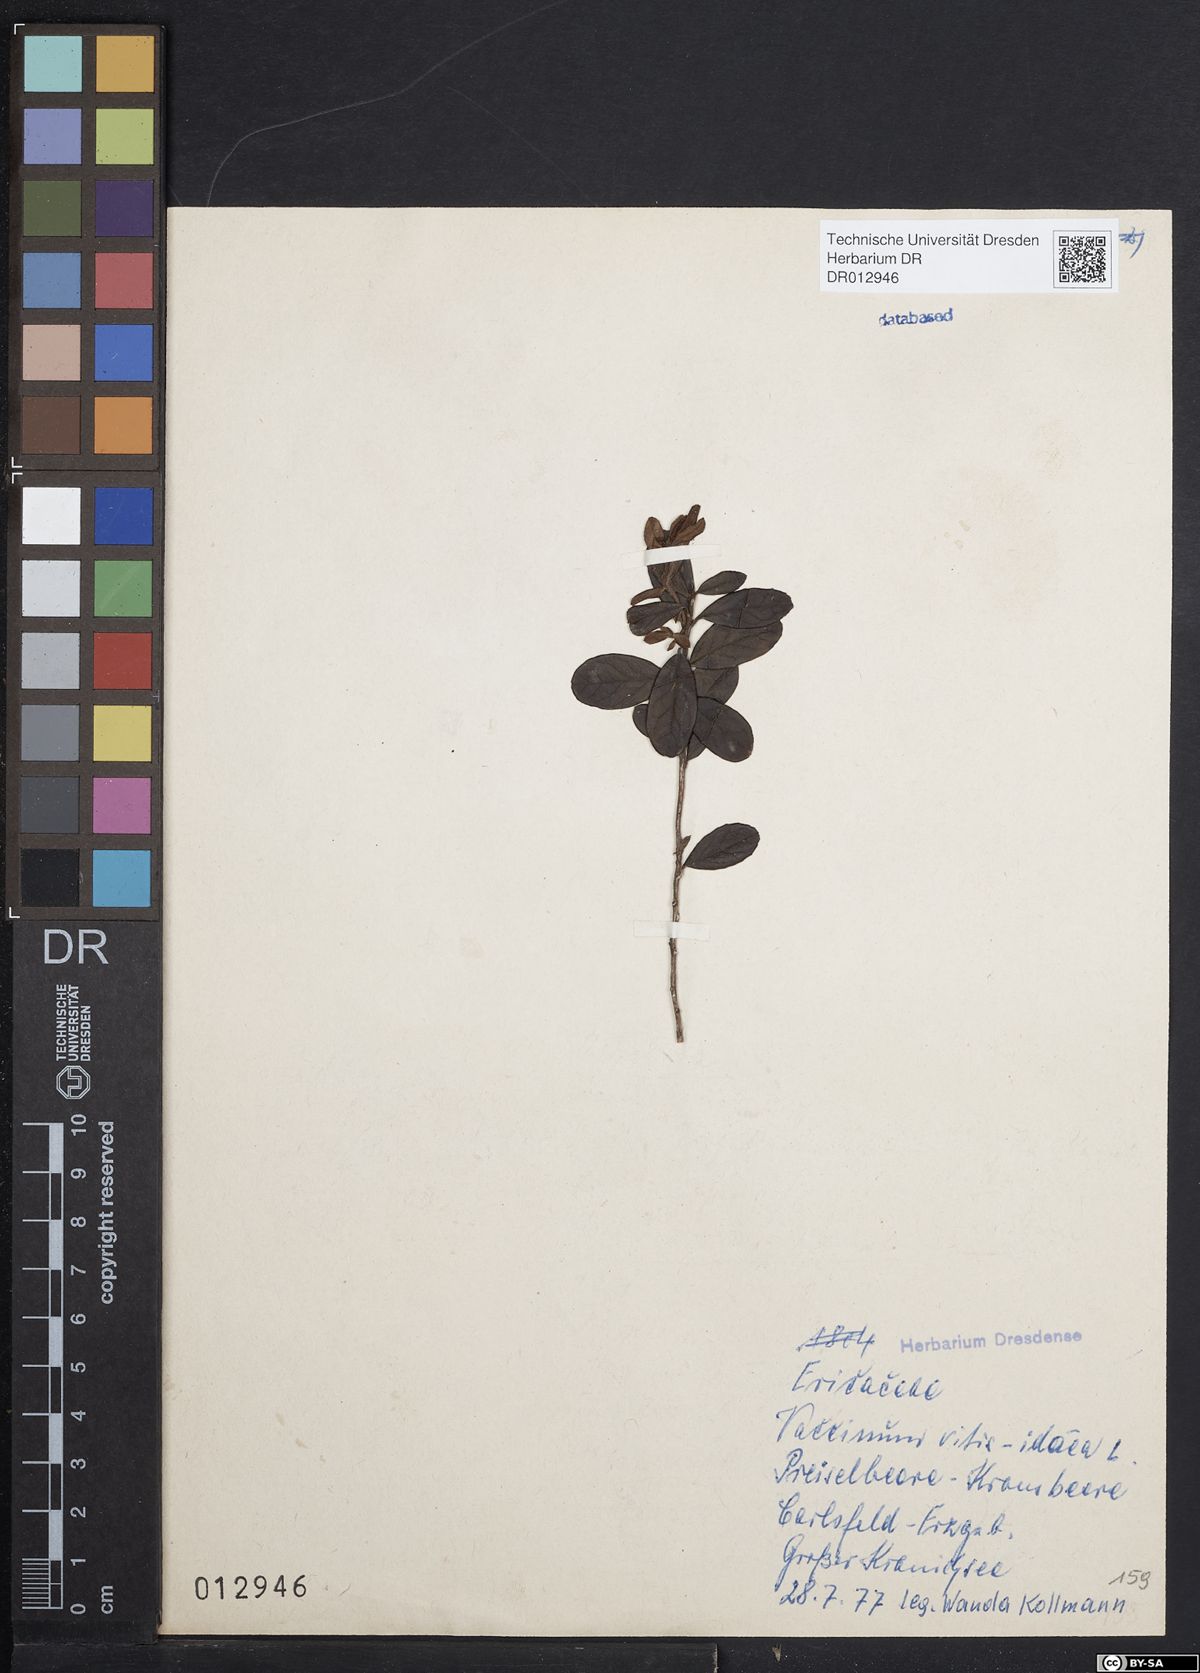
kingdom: Plantae
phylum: Tracheophyta
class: Magnoliopsida
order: Ericales
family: Ericaceae
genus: Vaccinium
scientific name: Vaccinium vitis-idaea
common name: Cowberry
